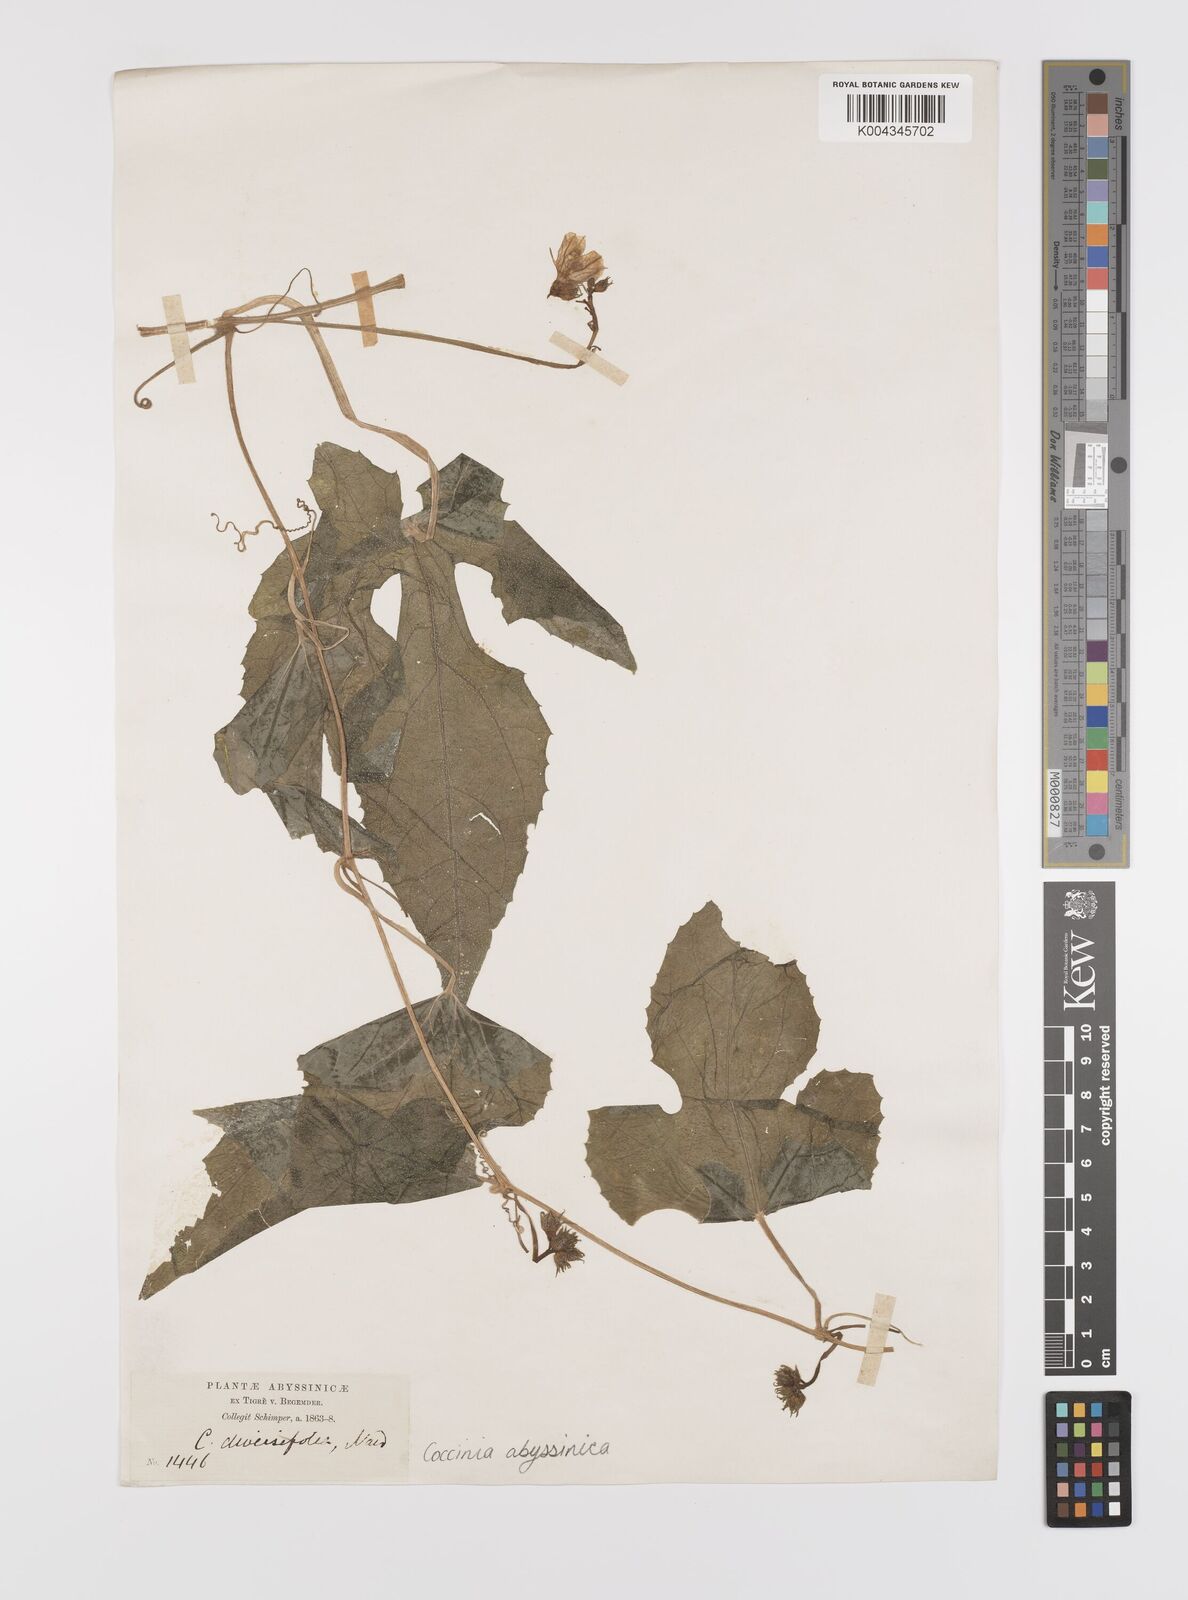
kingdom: Plantae
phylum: Tracheophyta
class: Magnoliopsida
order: Cucurbitales
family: Cucurbitaceae
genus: Coccinia
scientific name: Coccinia abyssinica
